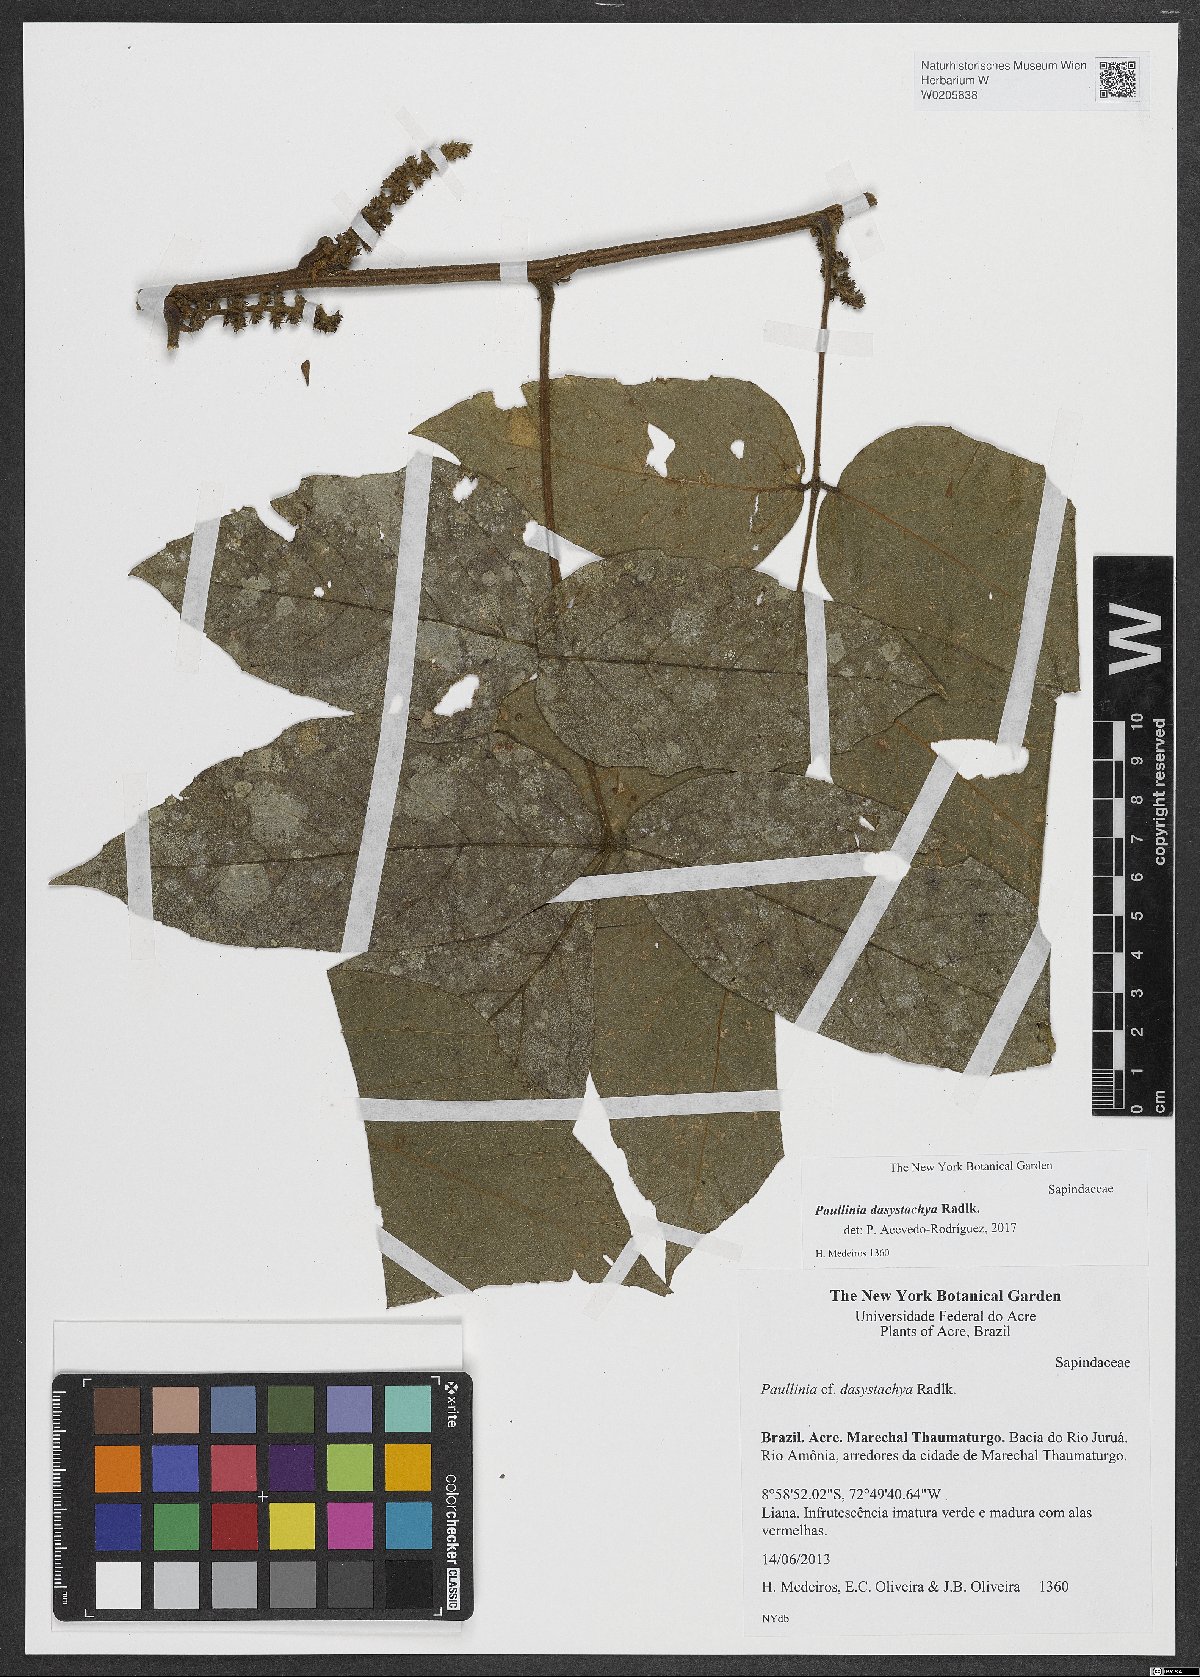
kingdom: Plantae
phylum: Tracheophyta
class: Magnoliopsida
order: Sapindales
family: Sapindaceae
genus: Paullinia
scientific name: Paullinia dasystachya
